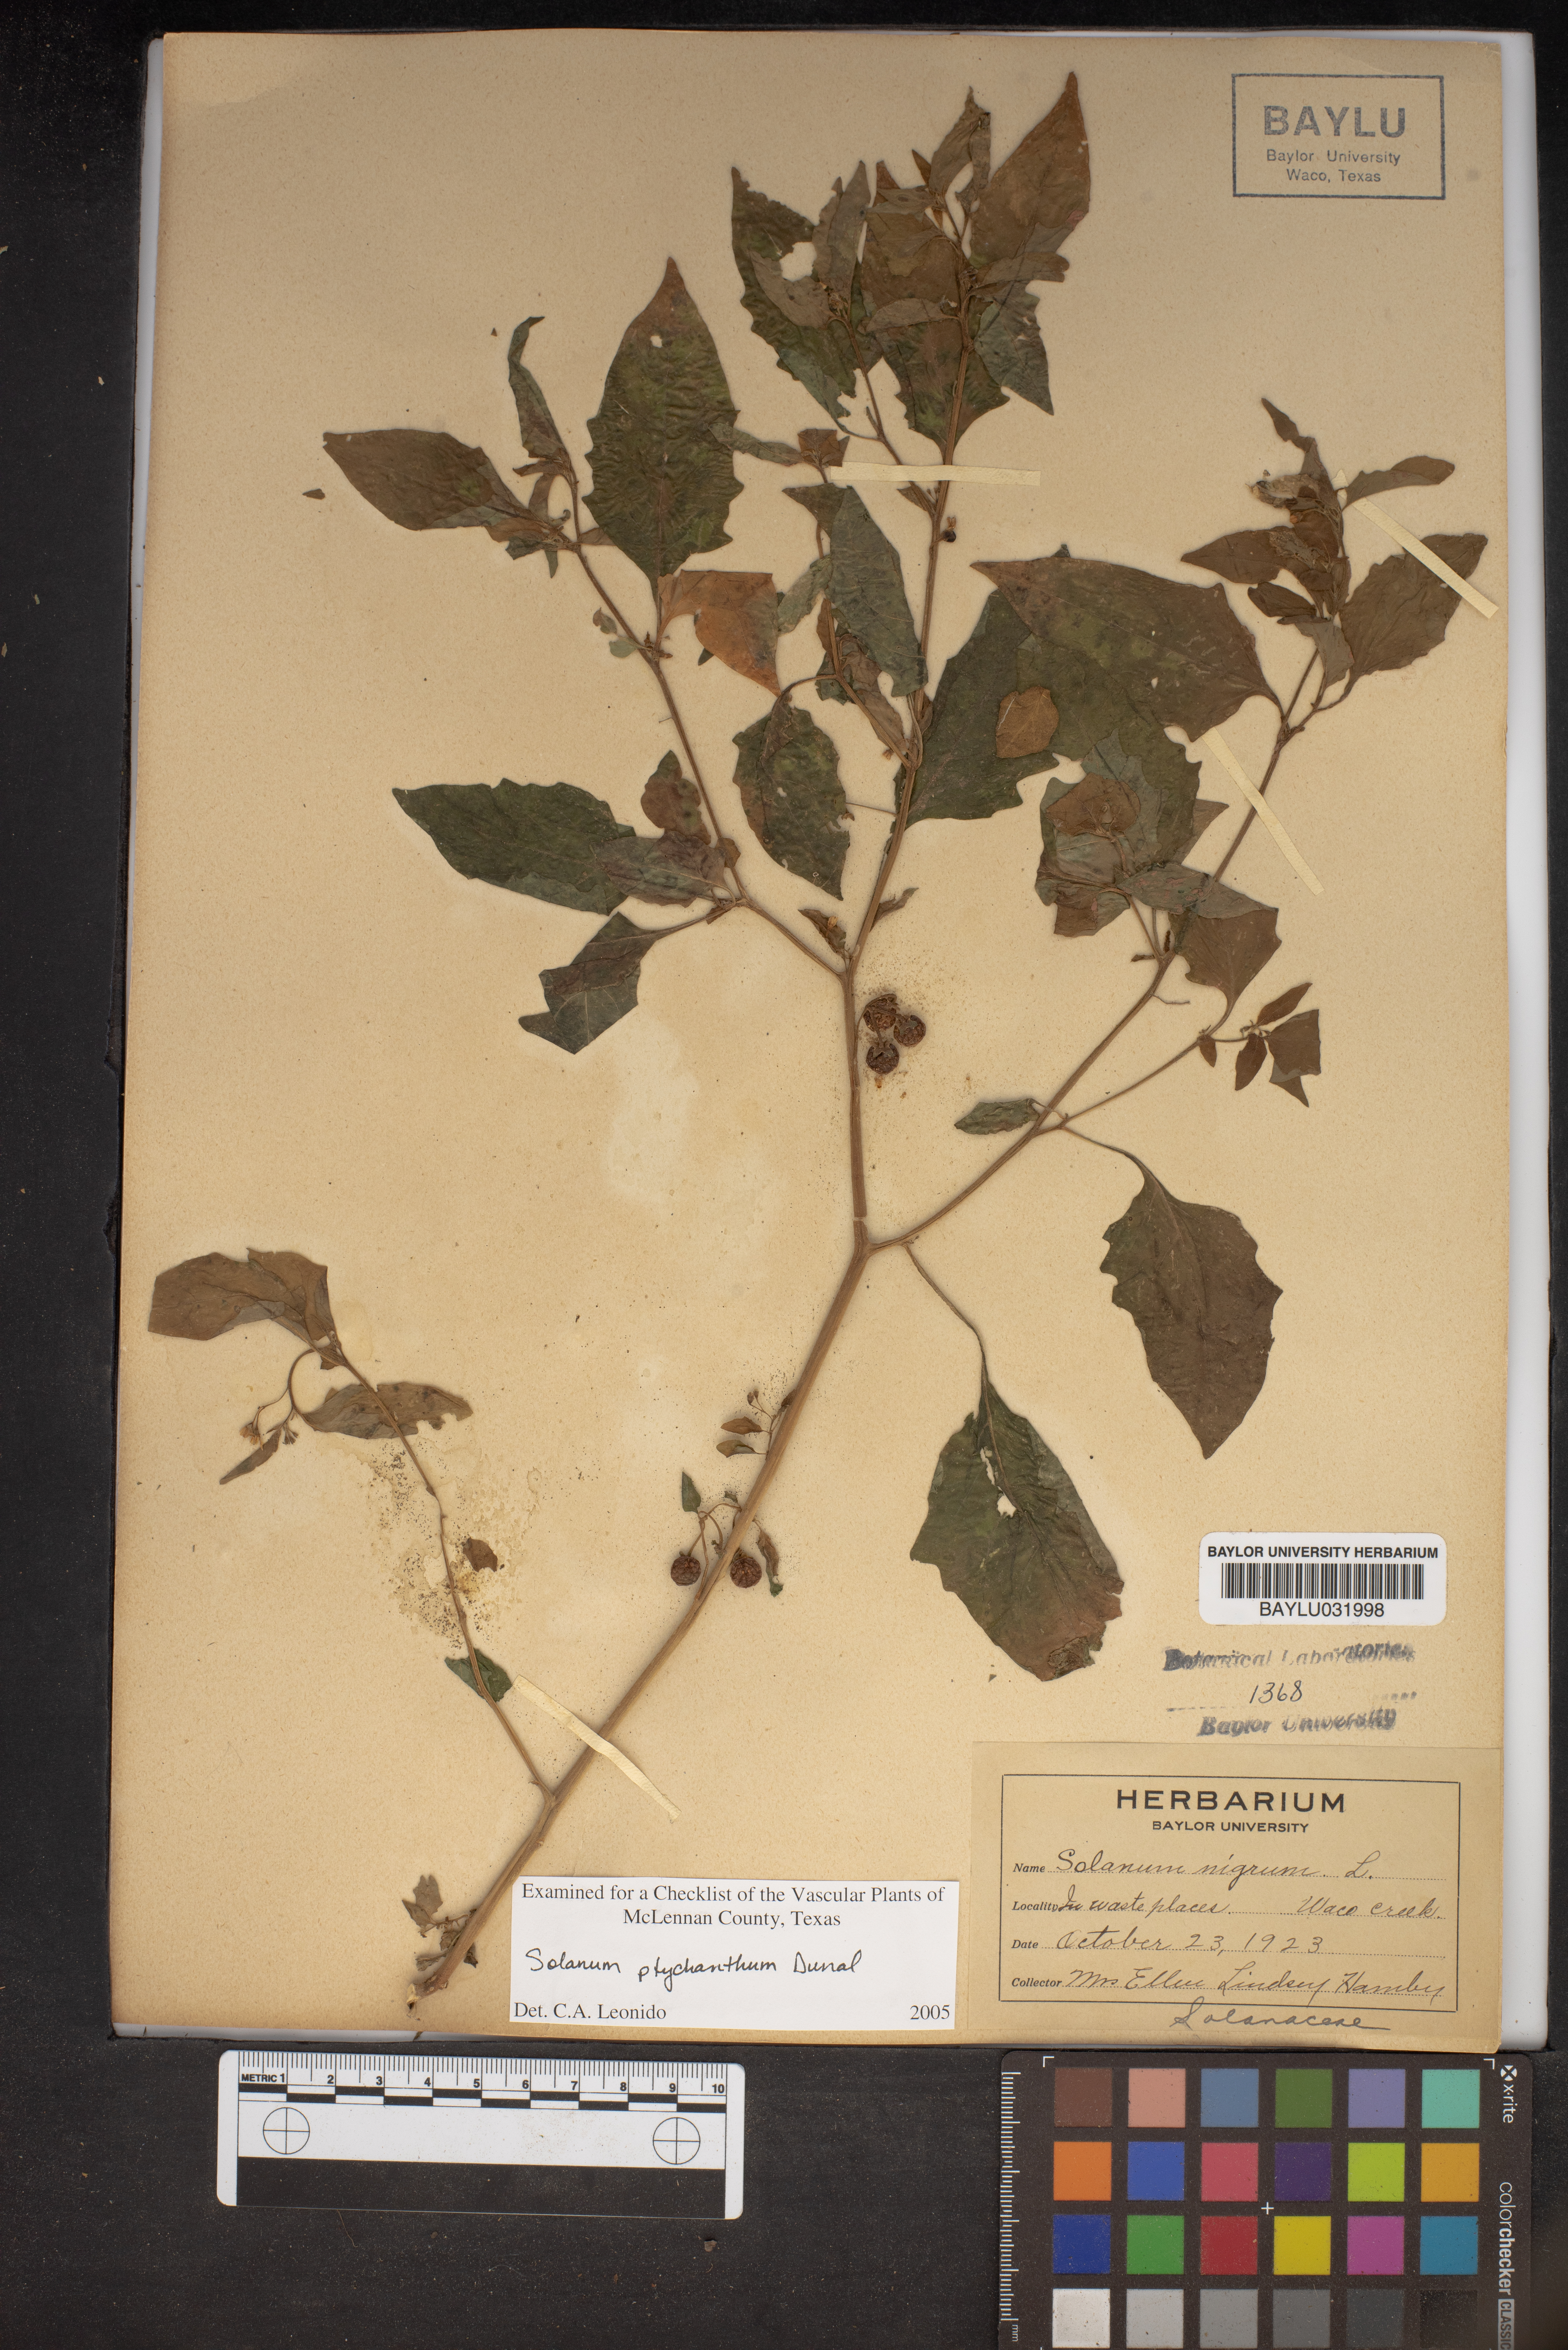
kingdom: Plantae
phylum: Tracheophyta
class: Magnoliopsida
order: Solanales
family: Solanaceae
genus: Solanum
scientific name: Solanum americanum
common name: American black nightshade
